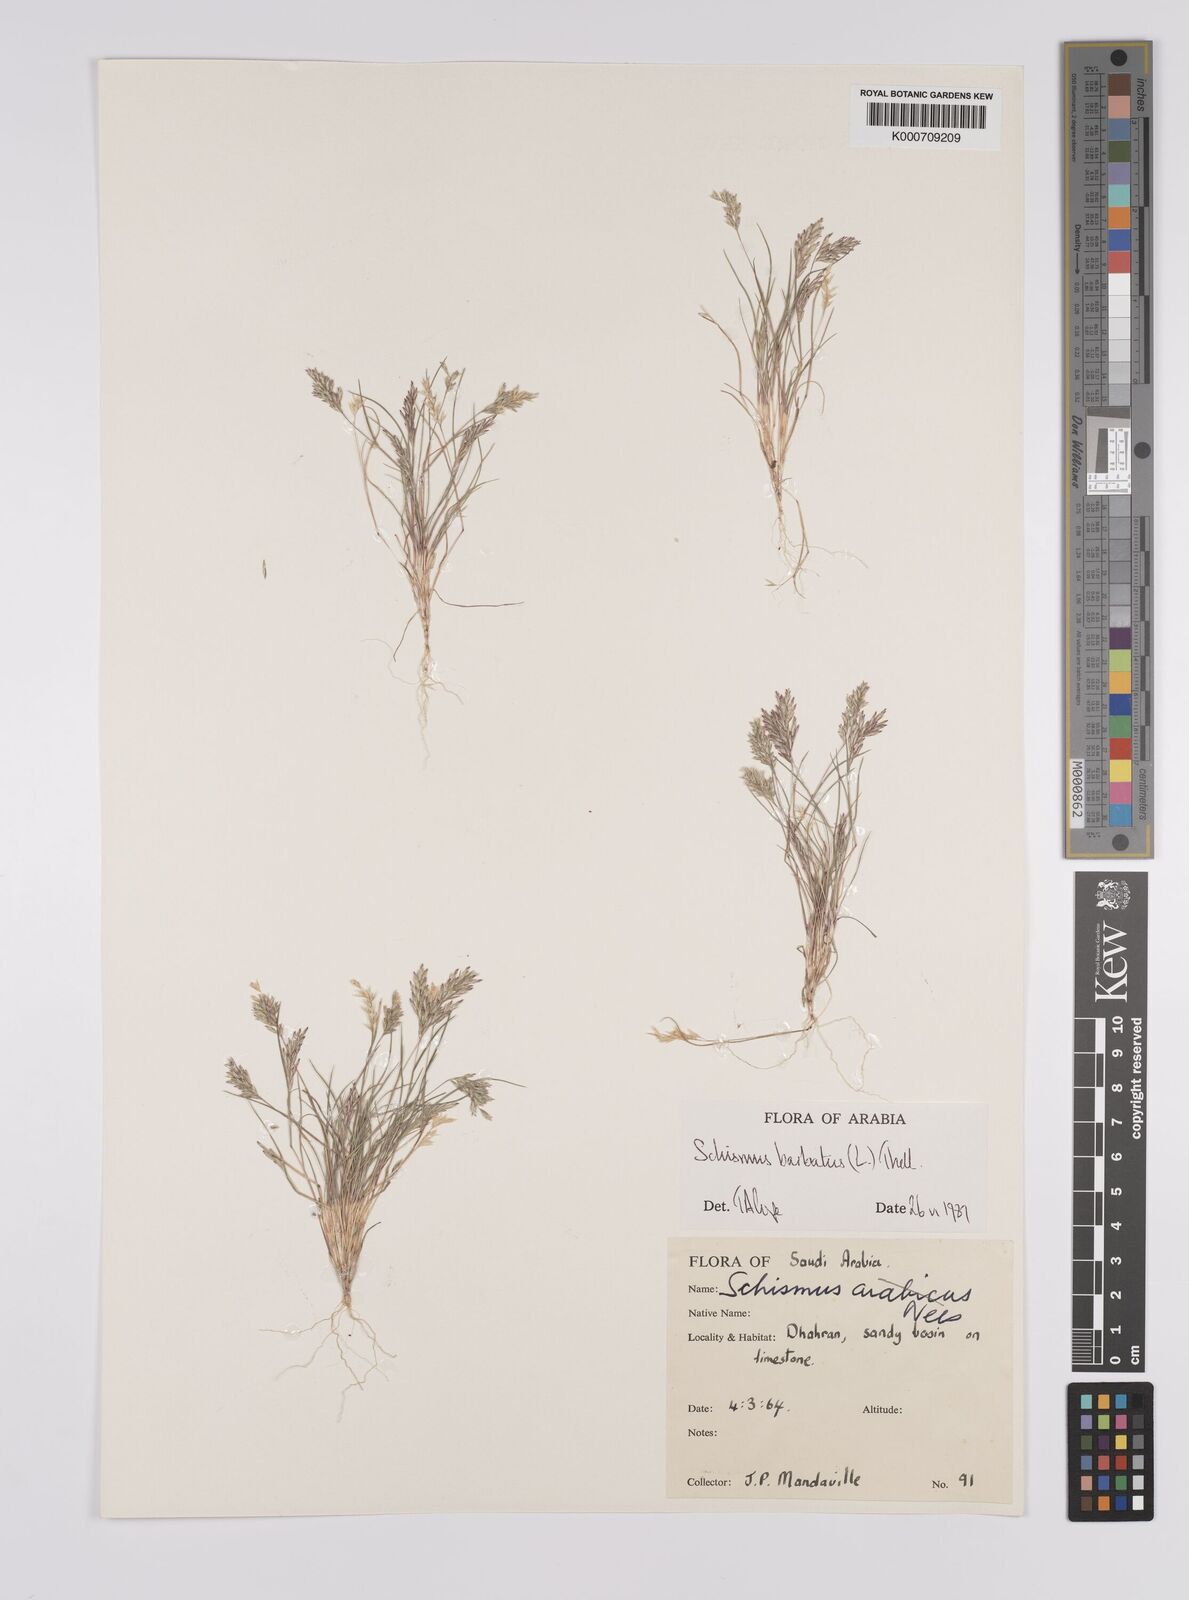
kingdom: Plantae
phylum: Tracheophyta
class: Liliopsida
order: Poales
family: Poaceae
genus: Schismus
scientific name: Schismus barbatus
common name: Kelch-grass
